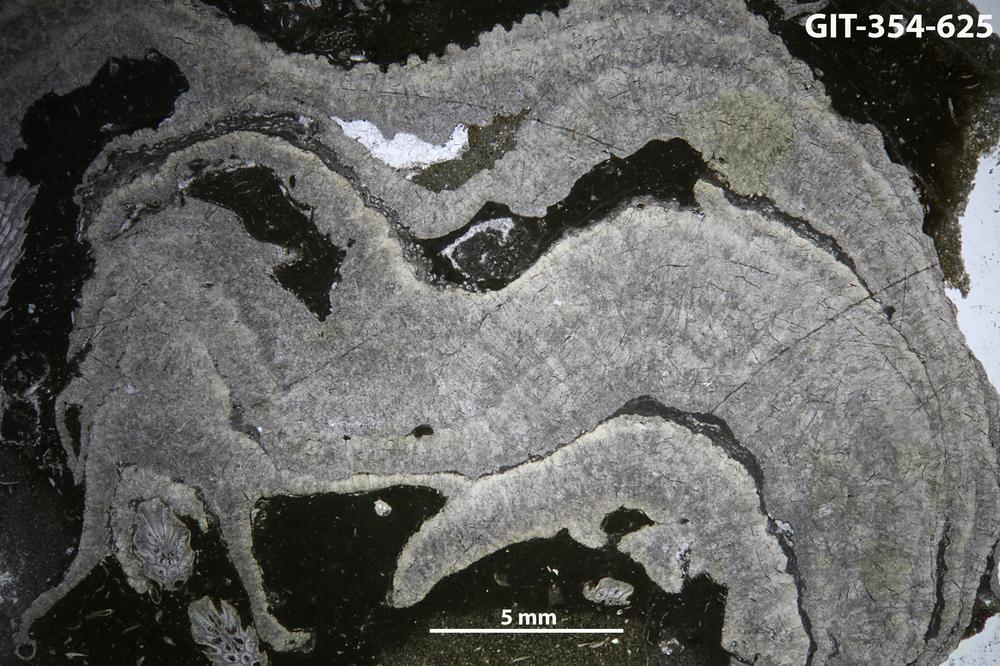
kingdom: Animalia
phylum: Porifera
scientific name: Porifera
